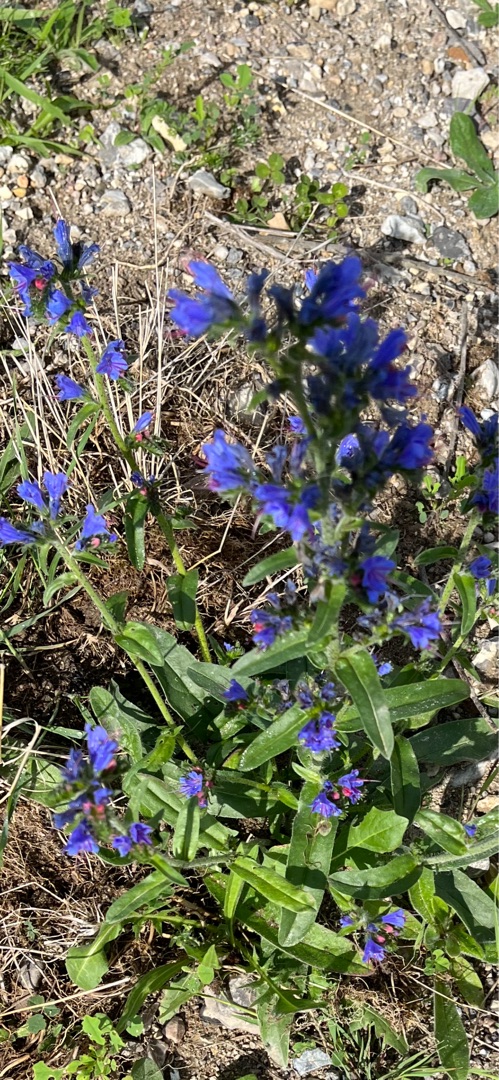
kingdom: Plantae
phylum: Tracheophyta
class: Magnoliopsida
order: Boraginales
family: Boraginaceae
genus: Echium
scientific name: Echium vulgare
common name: Slangehoved
